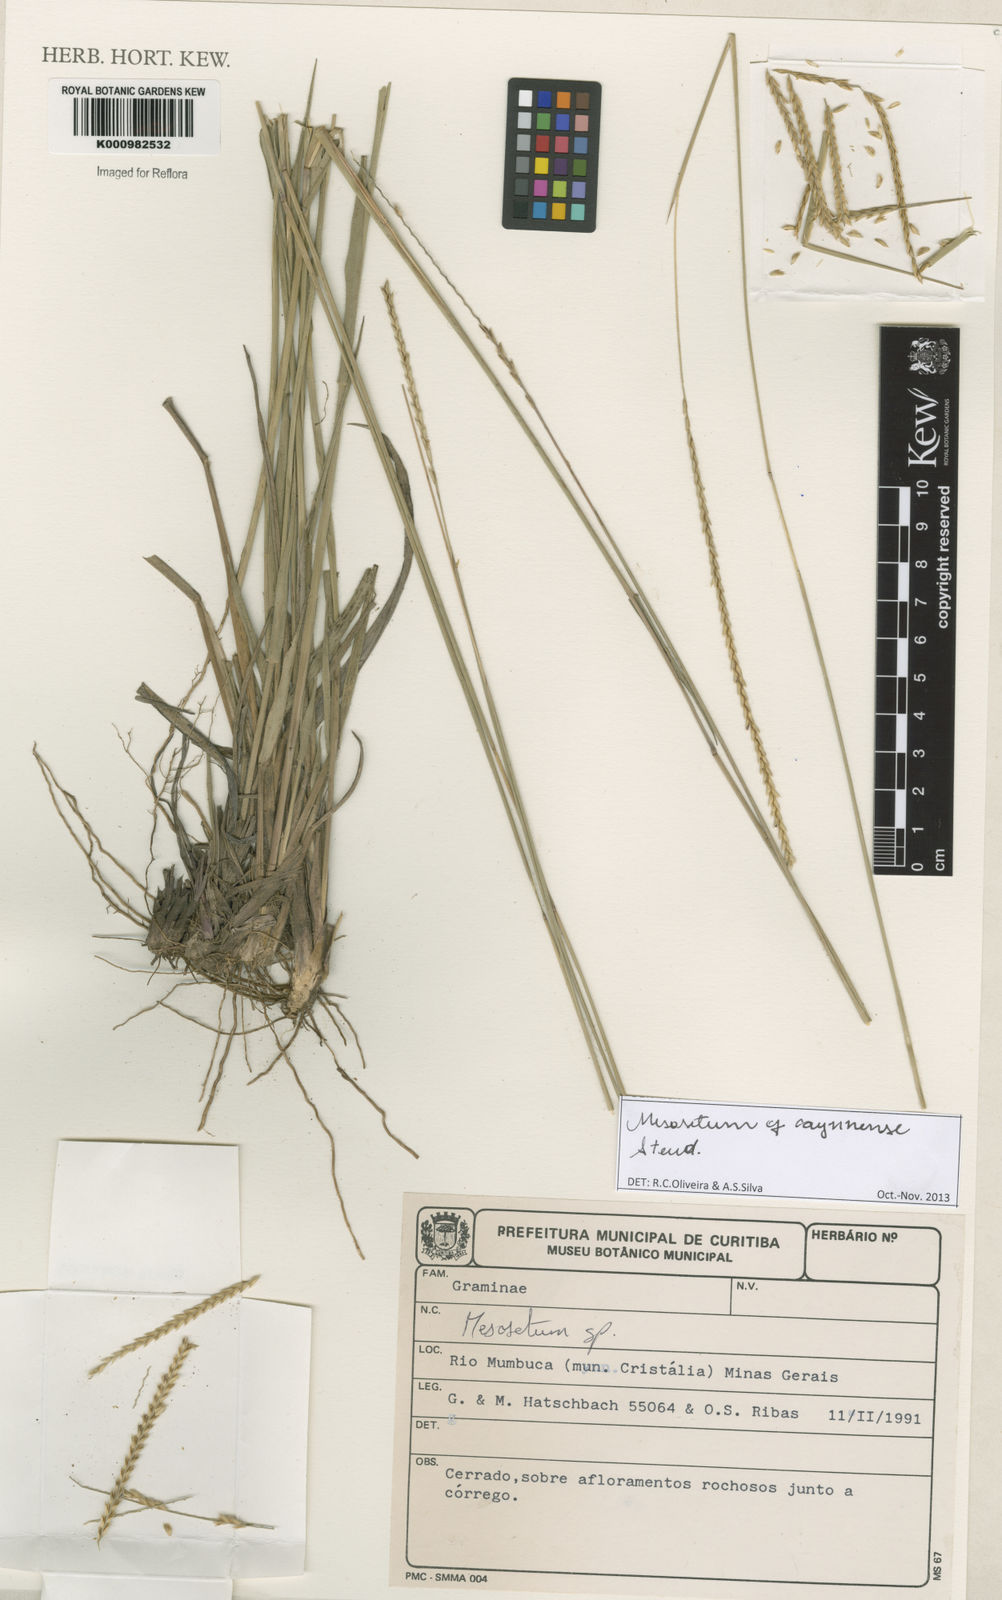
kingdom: Plantae
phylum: Tracheophyta
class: Liliopsida
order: Poales
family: Poaceae
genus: Mesosetum
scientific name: Mesosetum cayennense
